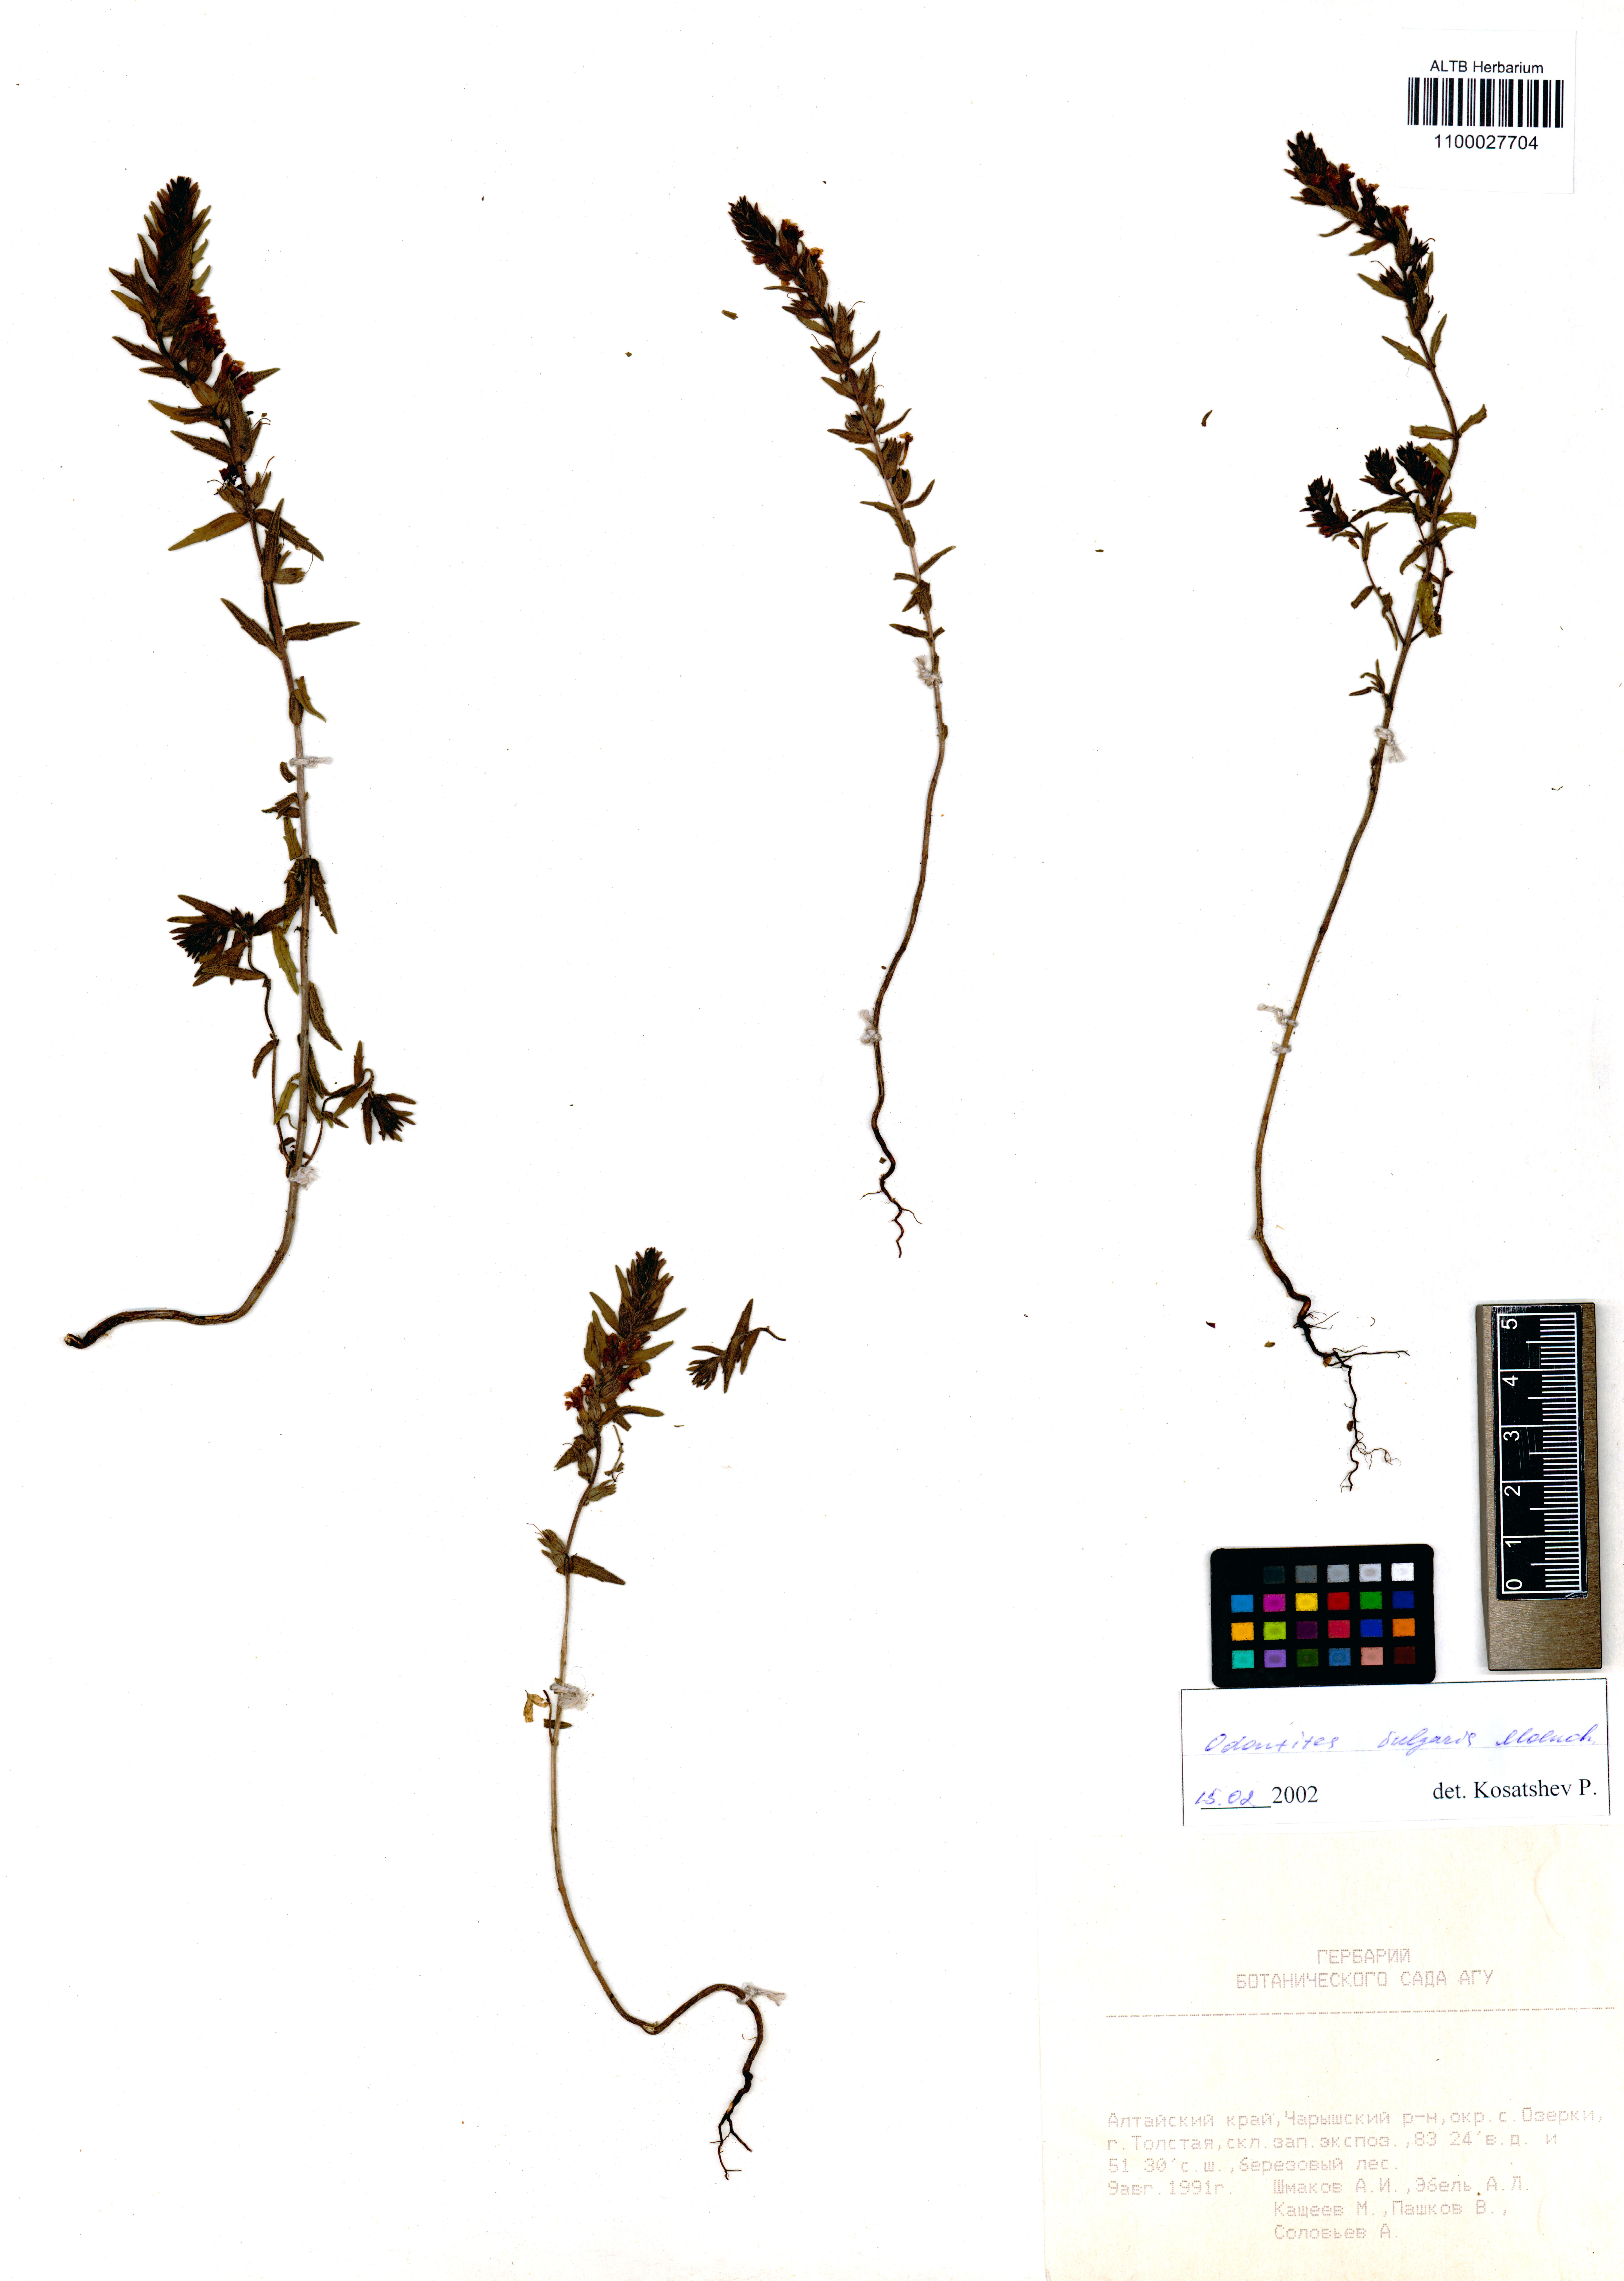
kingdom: Plantae
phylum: Tracheophyta
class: Magnoliopsida
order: Lamiales
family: Orobanchaceae
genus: Odontites
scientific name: Odontites vulgaris
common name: Broomrape
